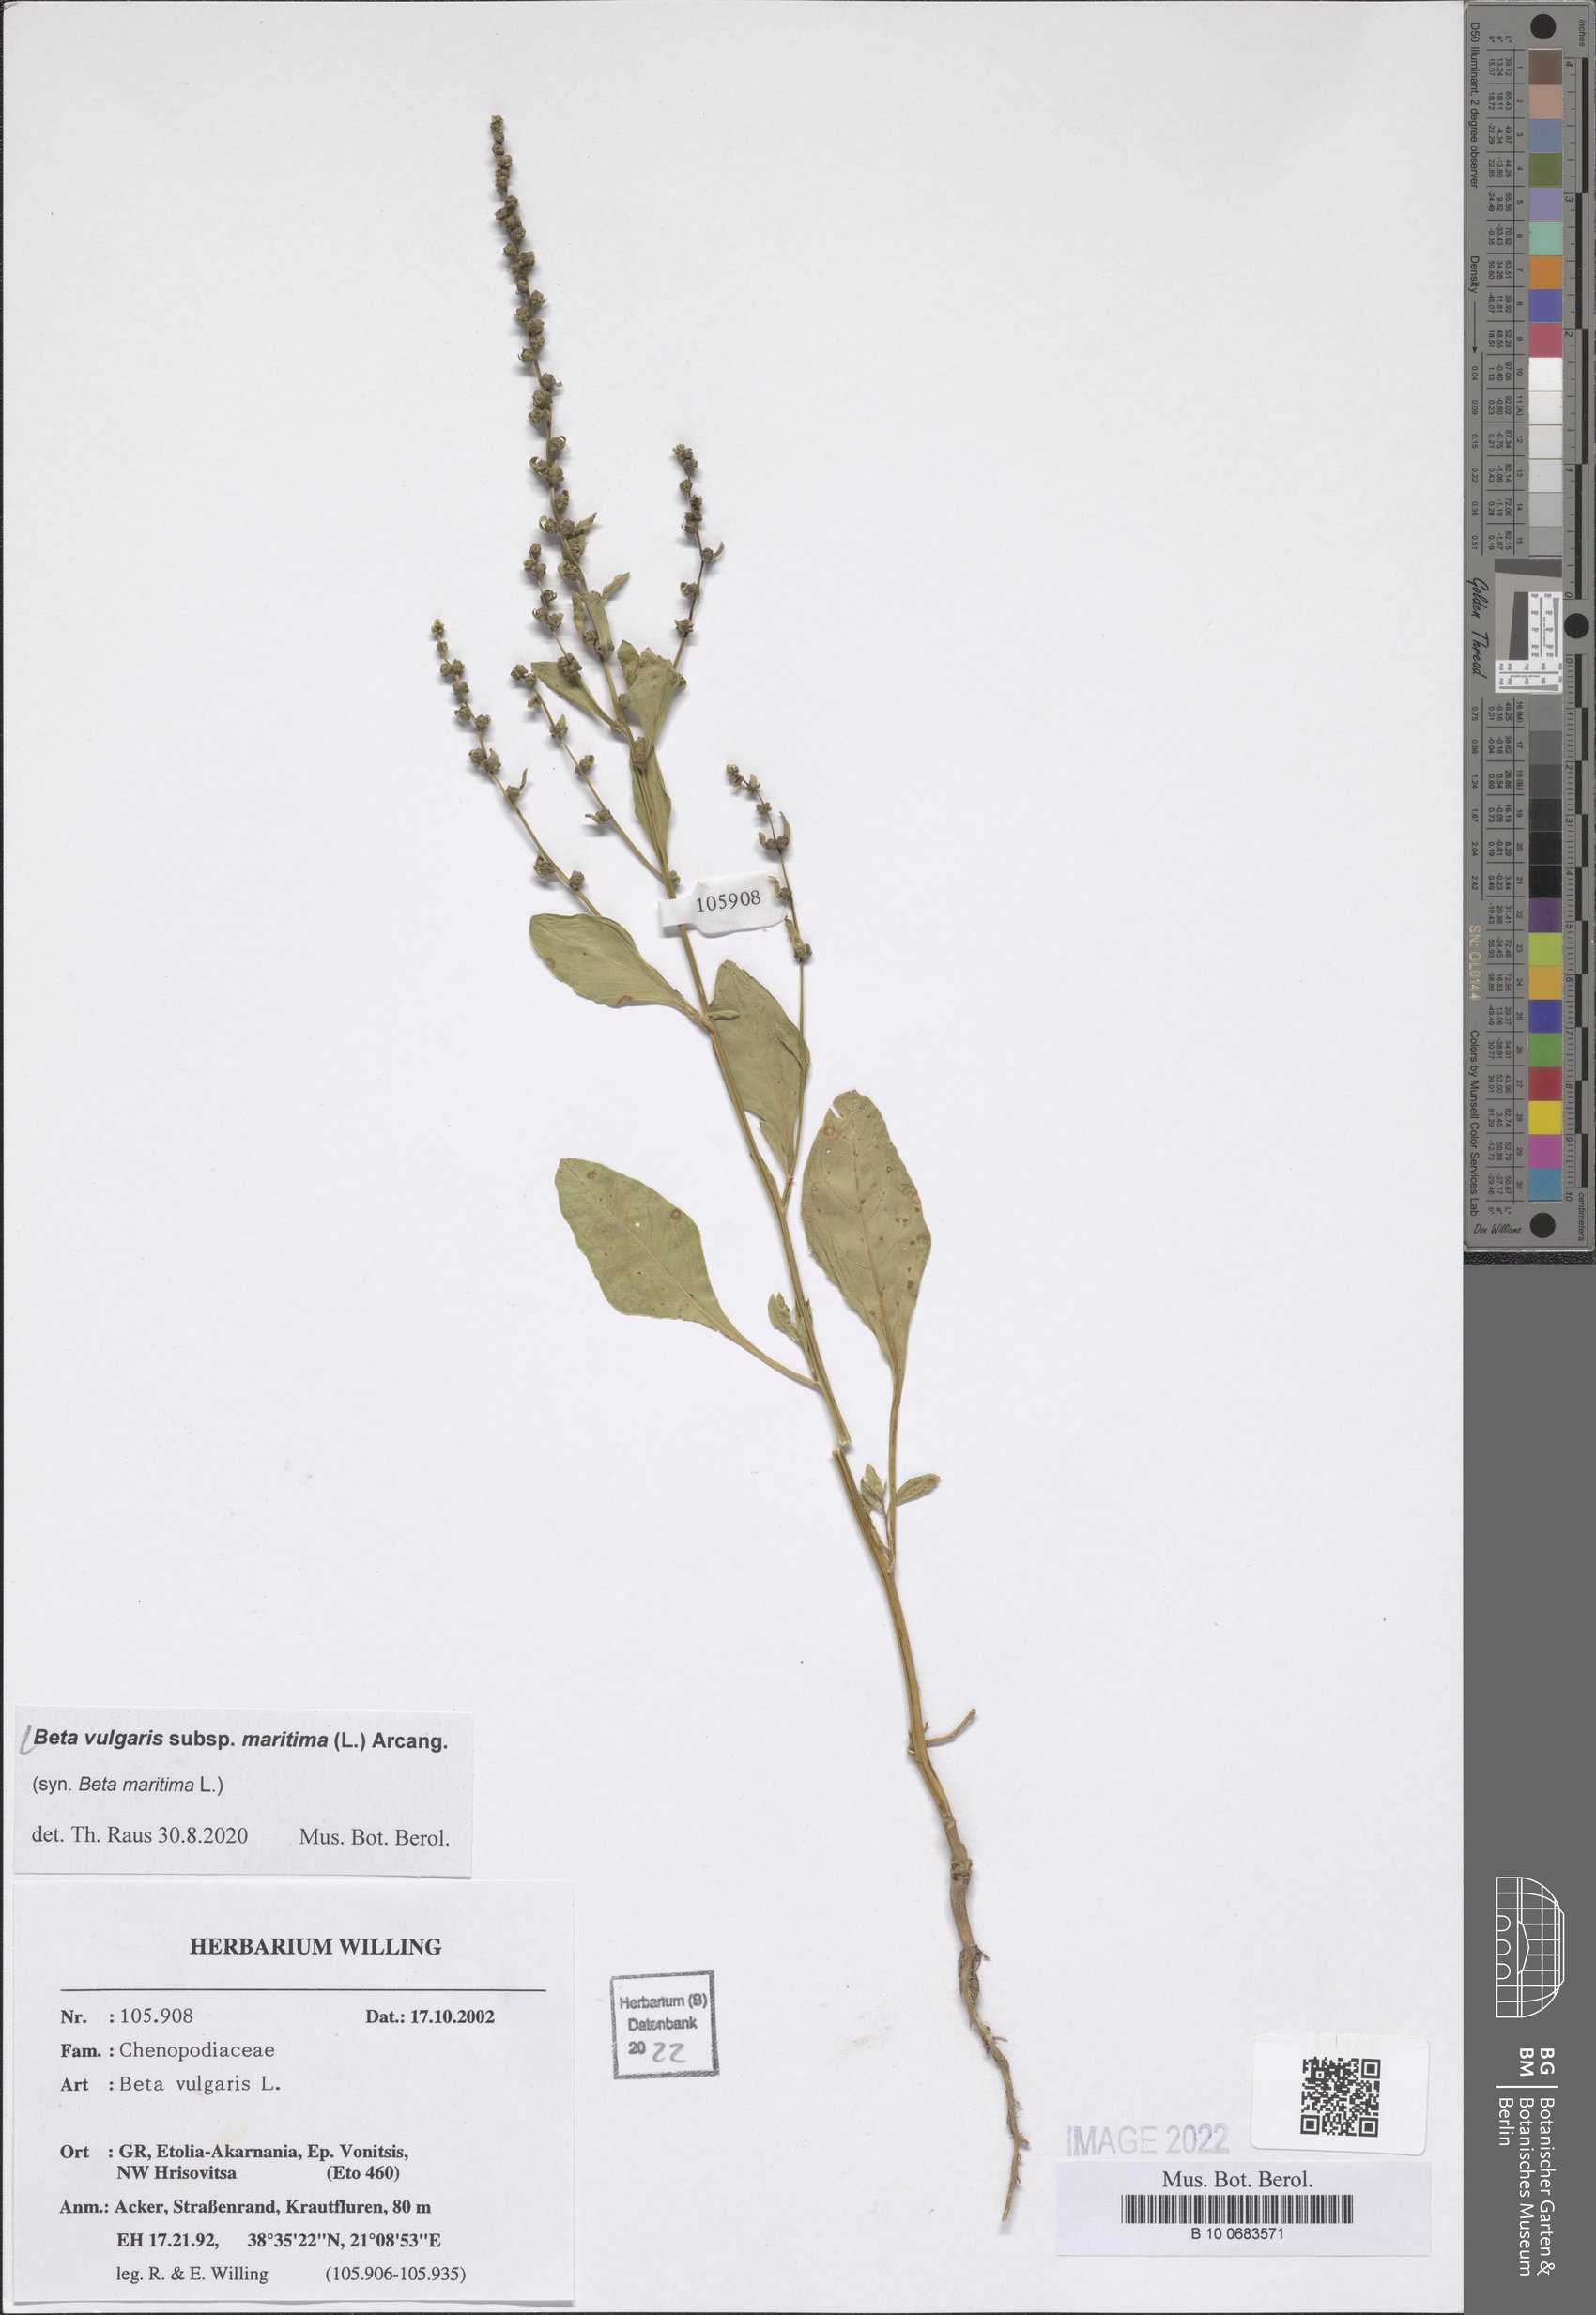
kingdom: Plantae
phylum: Tracheophyta
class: Magnoliopsida
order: Caryophyllales
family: Amaranthaceae
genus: Beta
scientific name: Beta maritima
